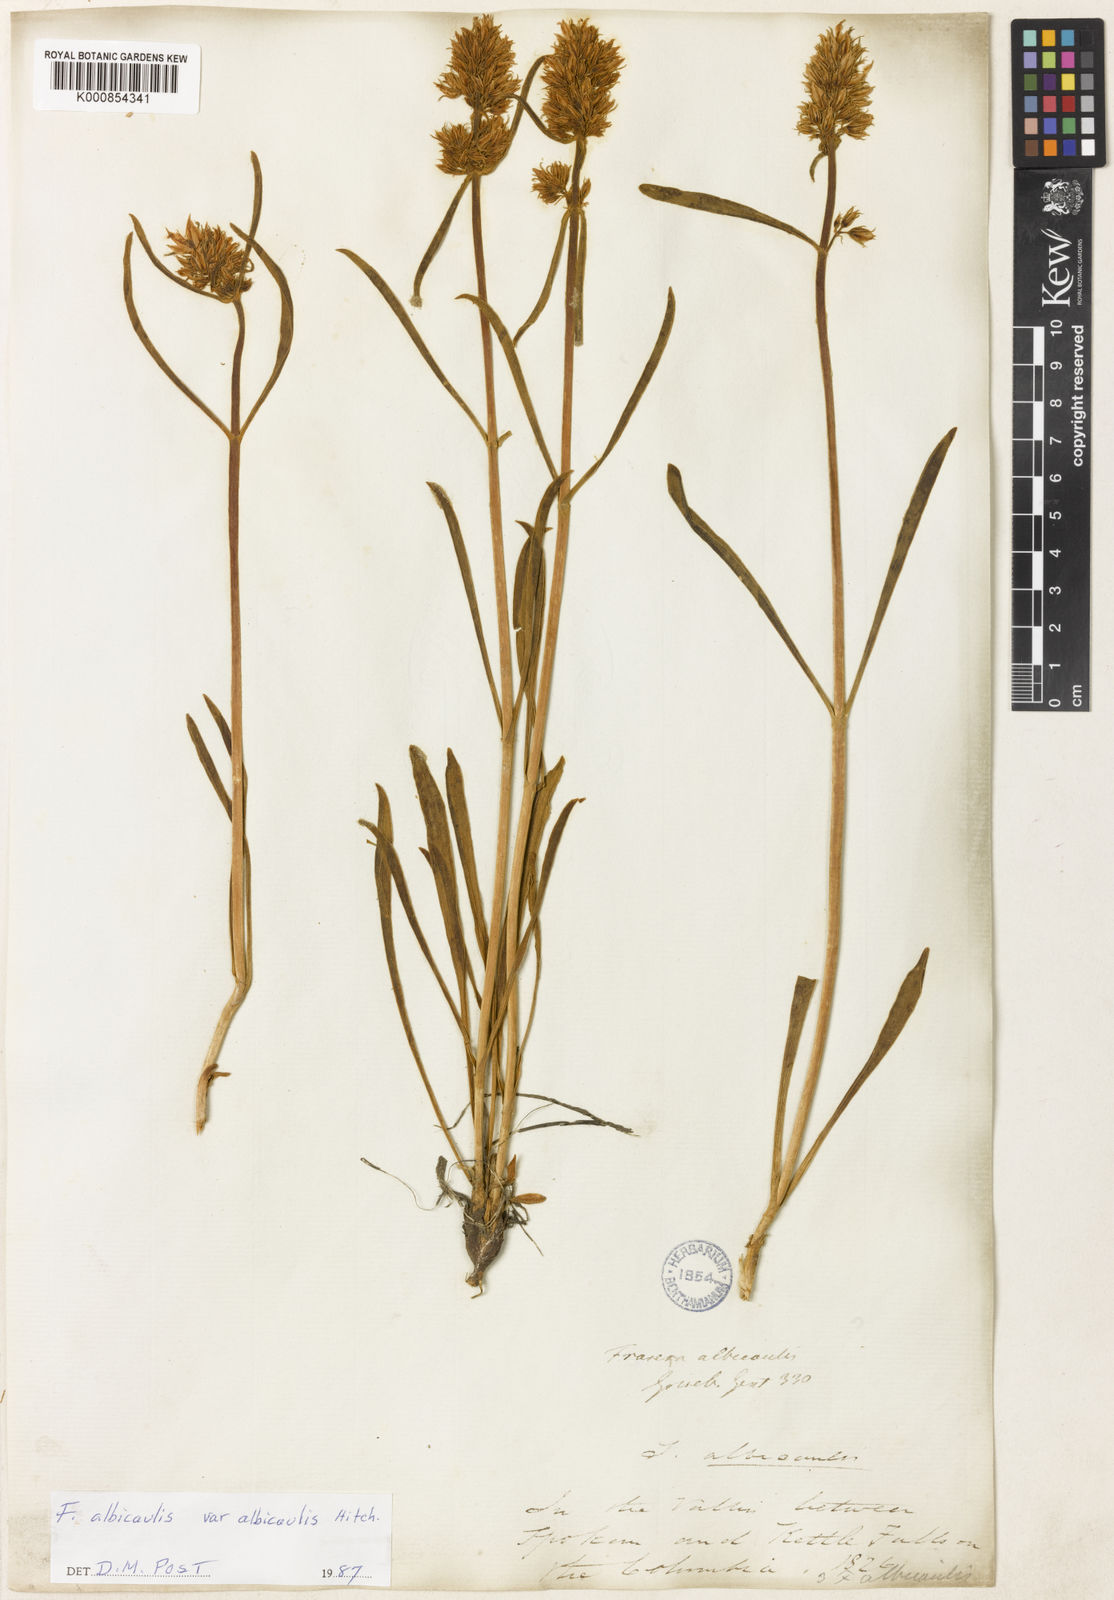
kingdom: Plantae
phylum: Tracheophyta
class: Magnoliopsida
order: Gentianales
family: Gentianaceae
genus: Frasera
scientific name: Frasera albicaulis
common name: Cusick's frasera
